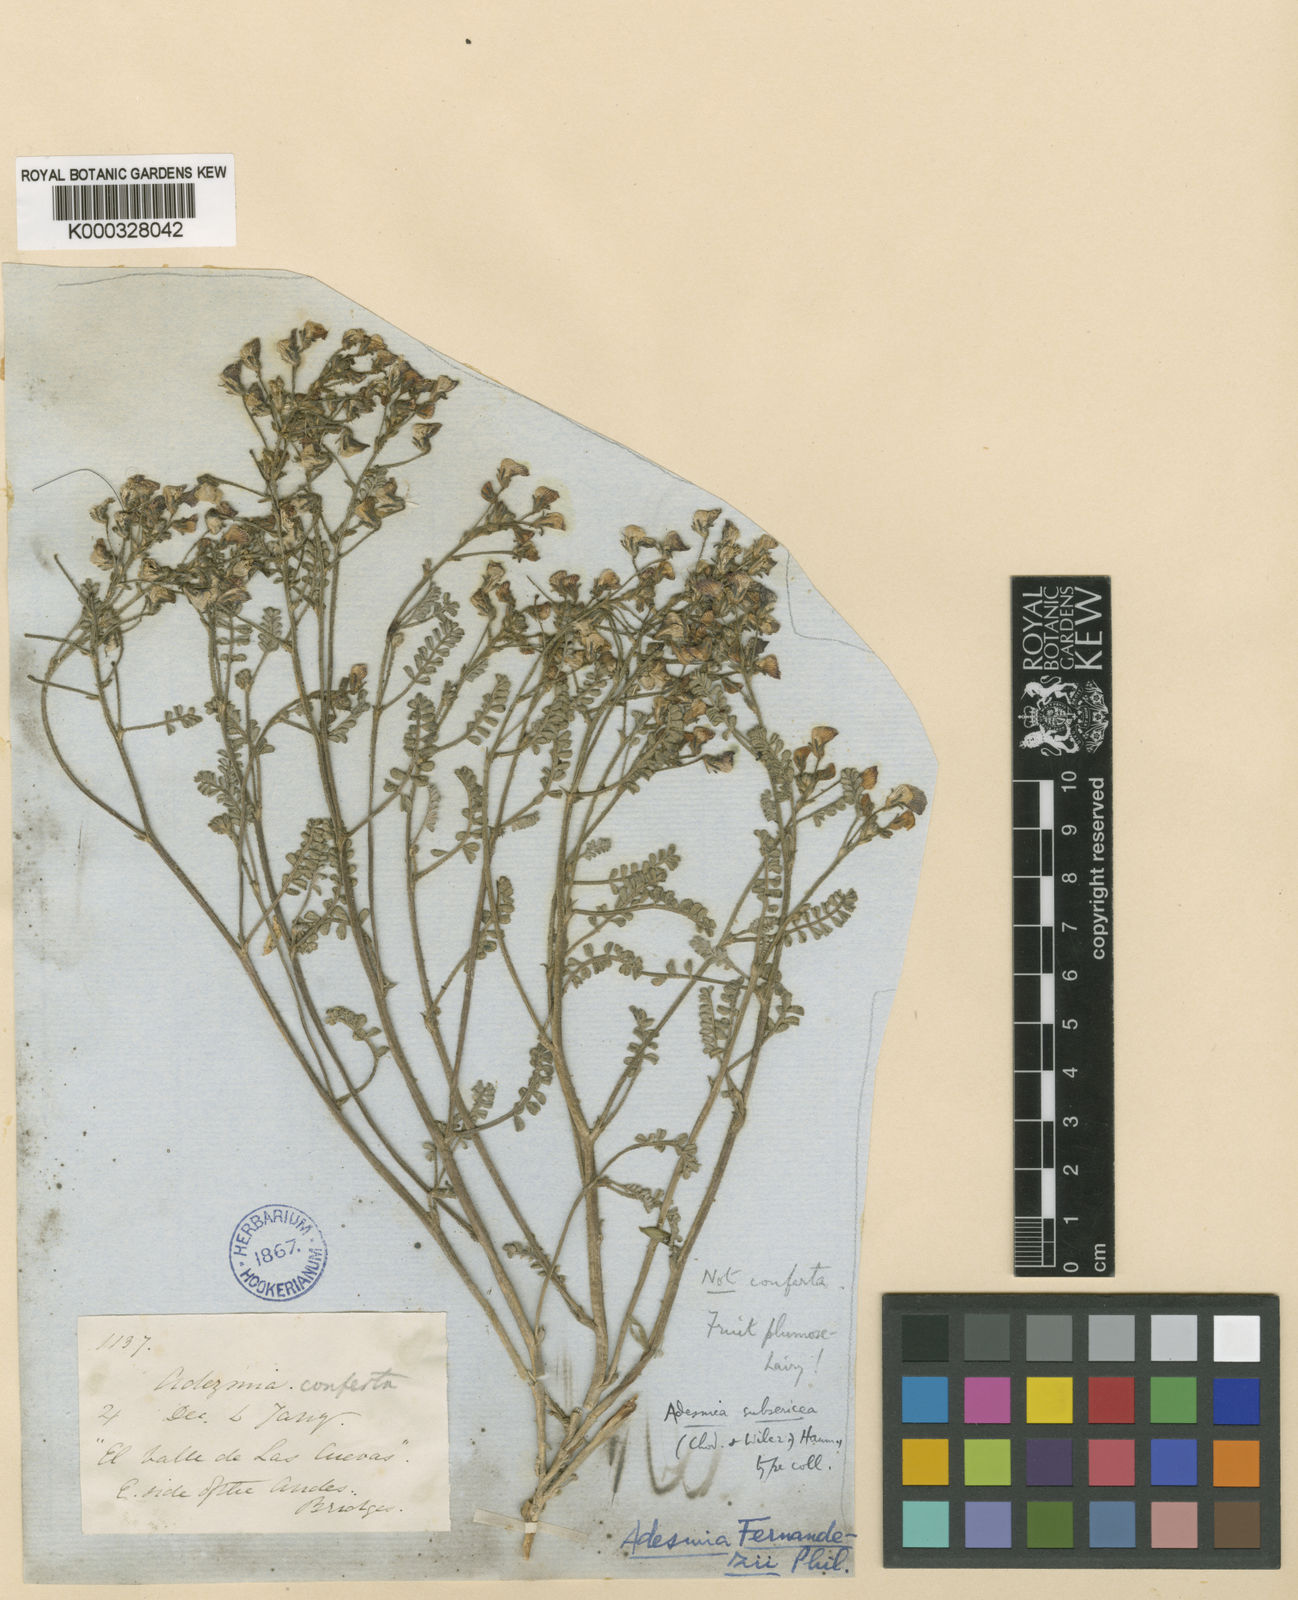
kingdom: Plantae
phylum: Tracheophyta
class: Magnoliopsida
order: Fabales
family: Fabaceae
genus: Adesmia
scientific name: Adesmia corymbosa
